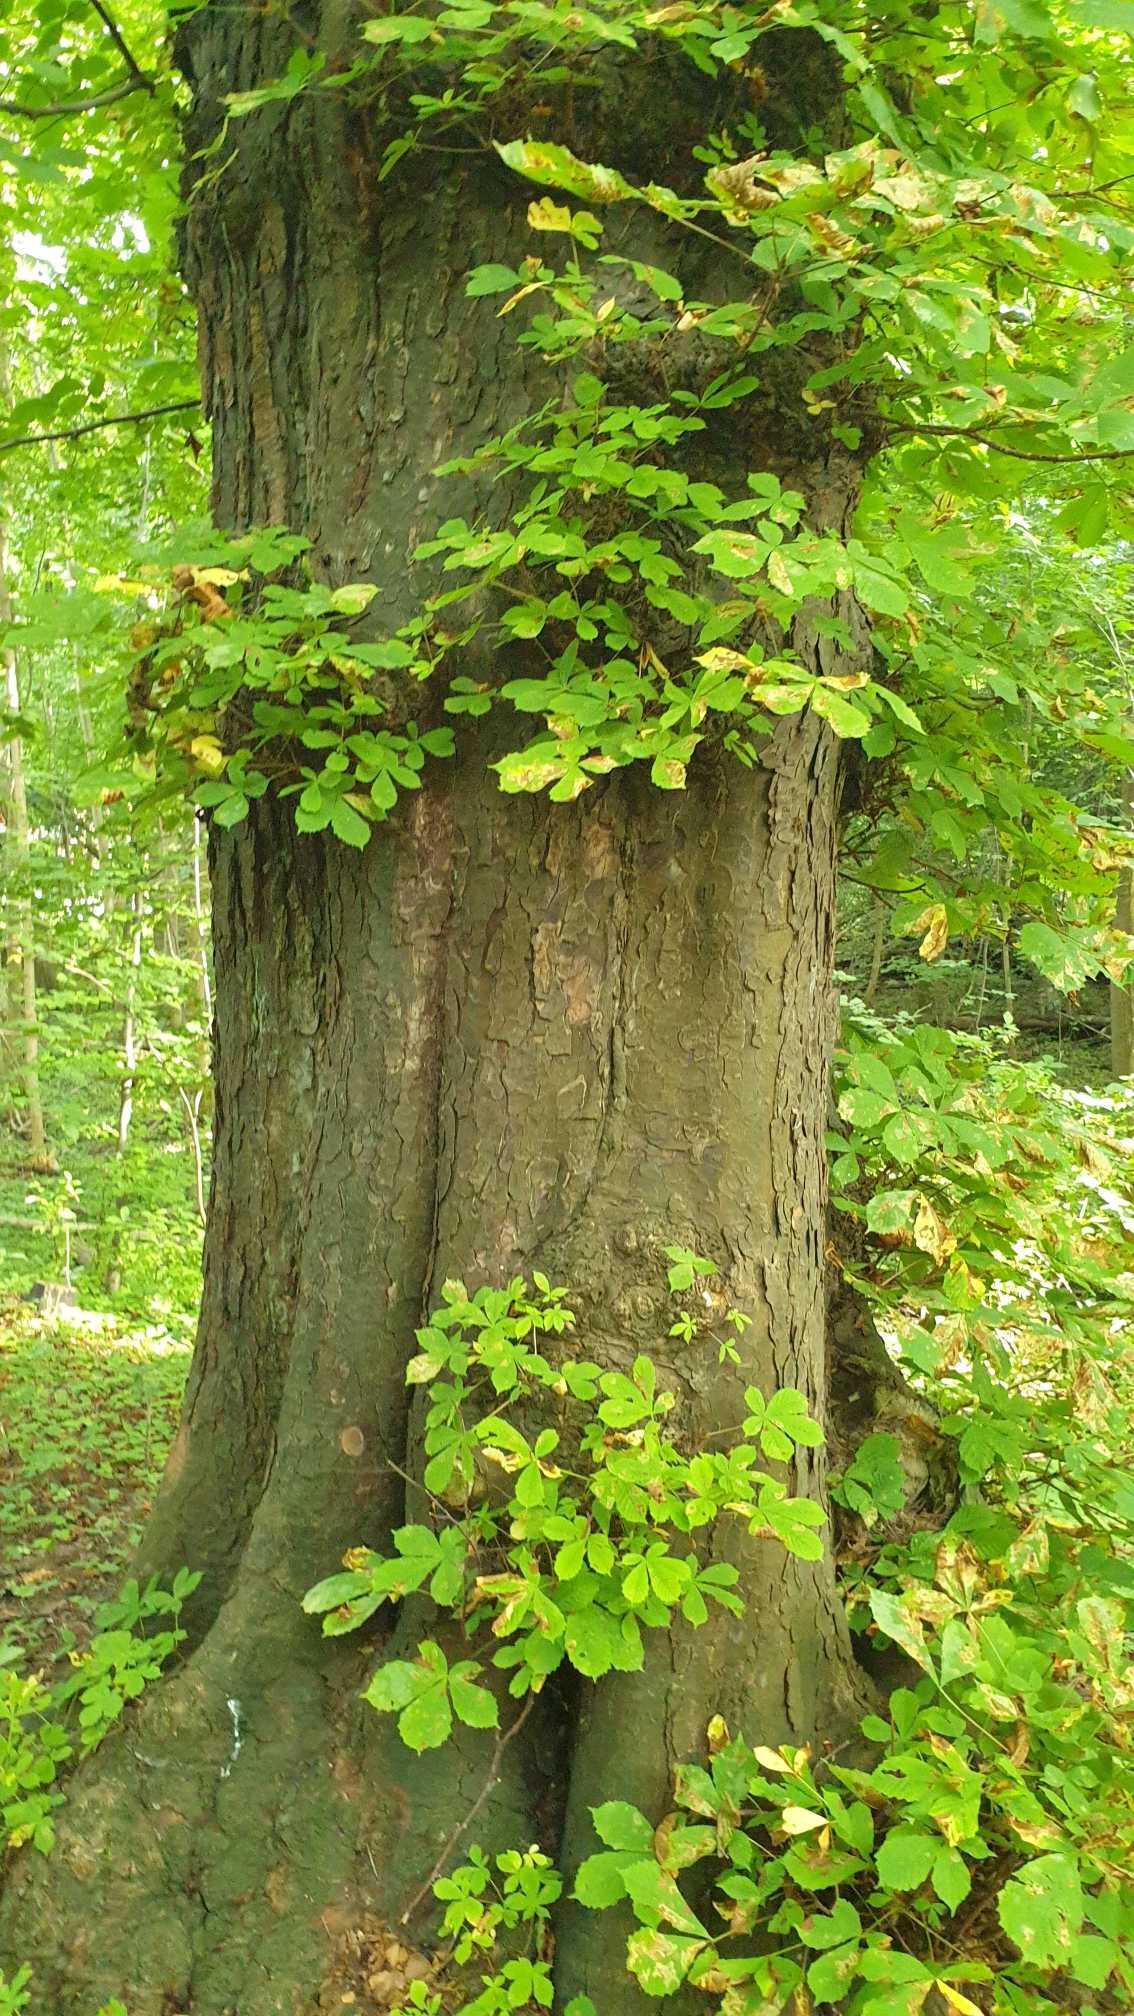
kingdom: Plantae
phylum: Tracheophyta
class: Magnoliopsida
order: Sapindales
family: Sapindaceae
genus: Aesculus
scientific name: Aesculus hippocastanum
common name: Hestekastanie
